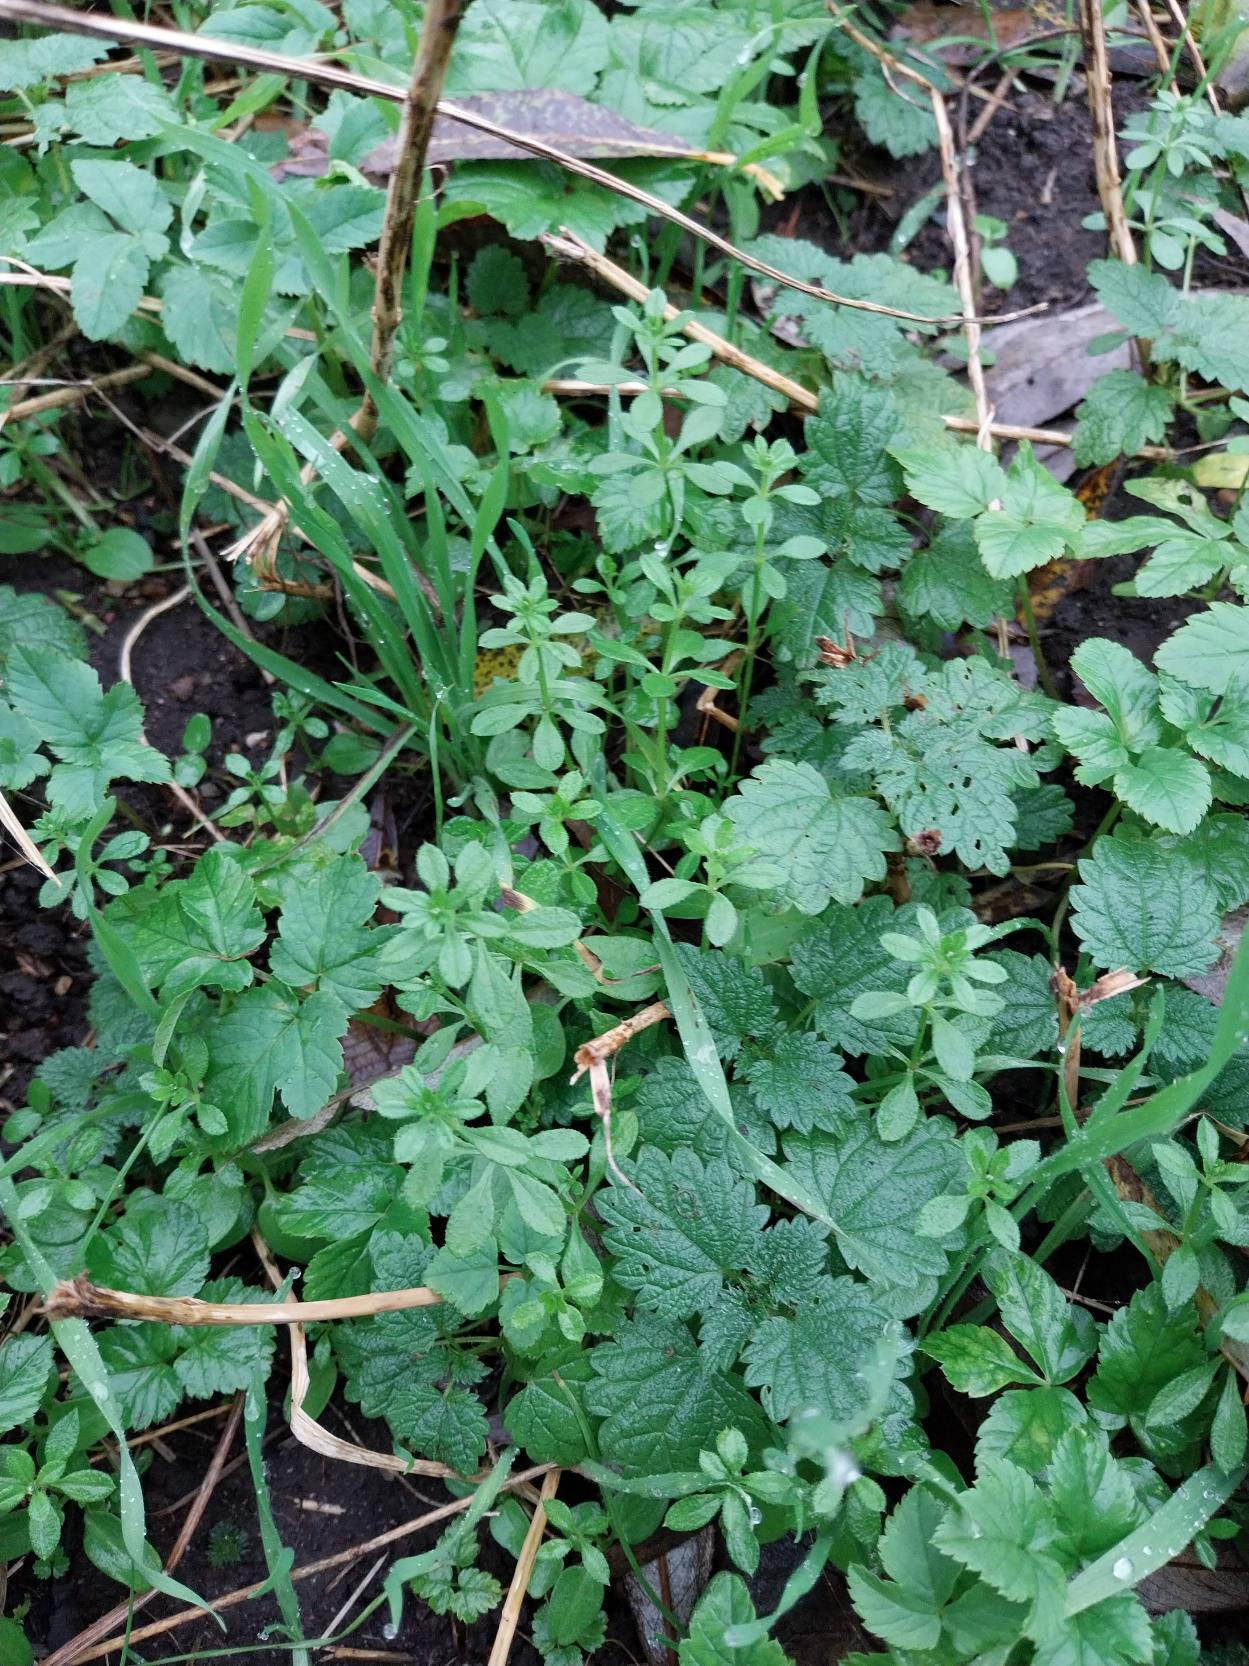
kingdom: Plantae
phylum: Tracheophyta
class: Magnoliopsida
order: Gentianales
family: Rubiaceae
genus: Galium
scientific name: Galium aparine
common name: Burre-snerre
